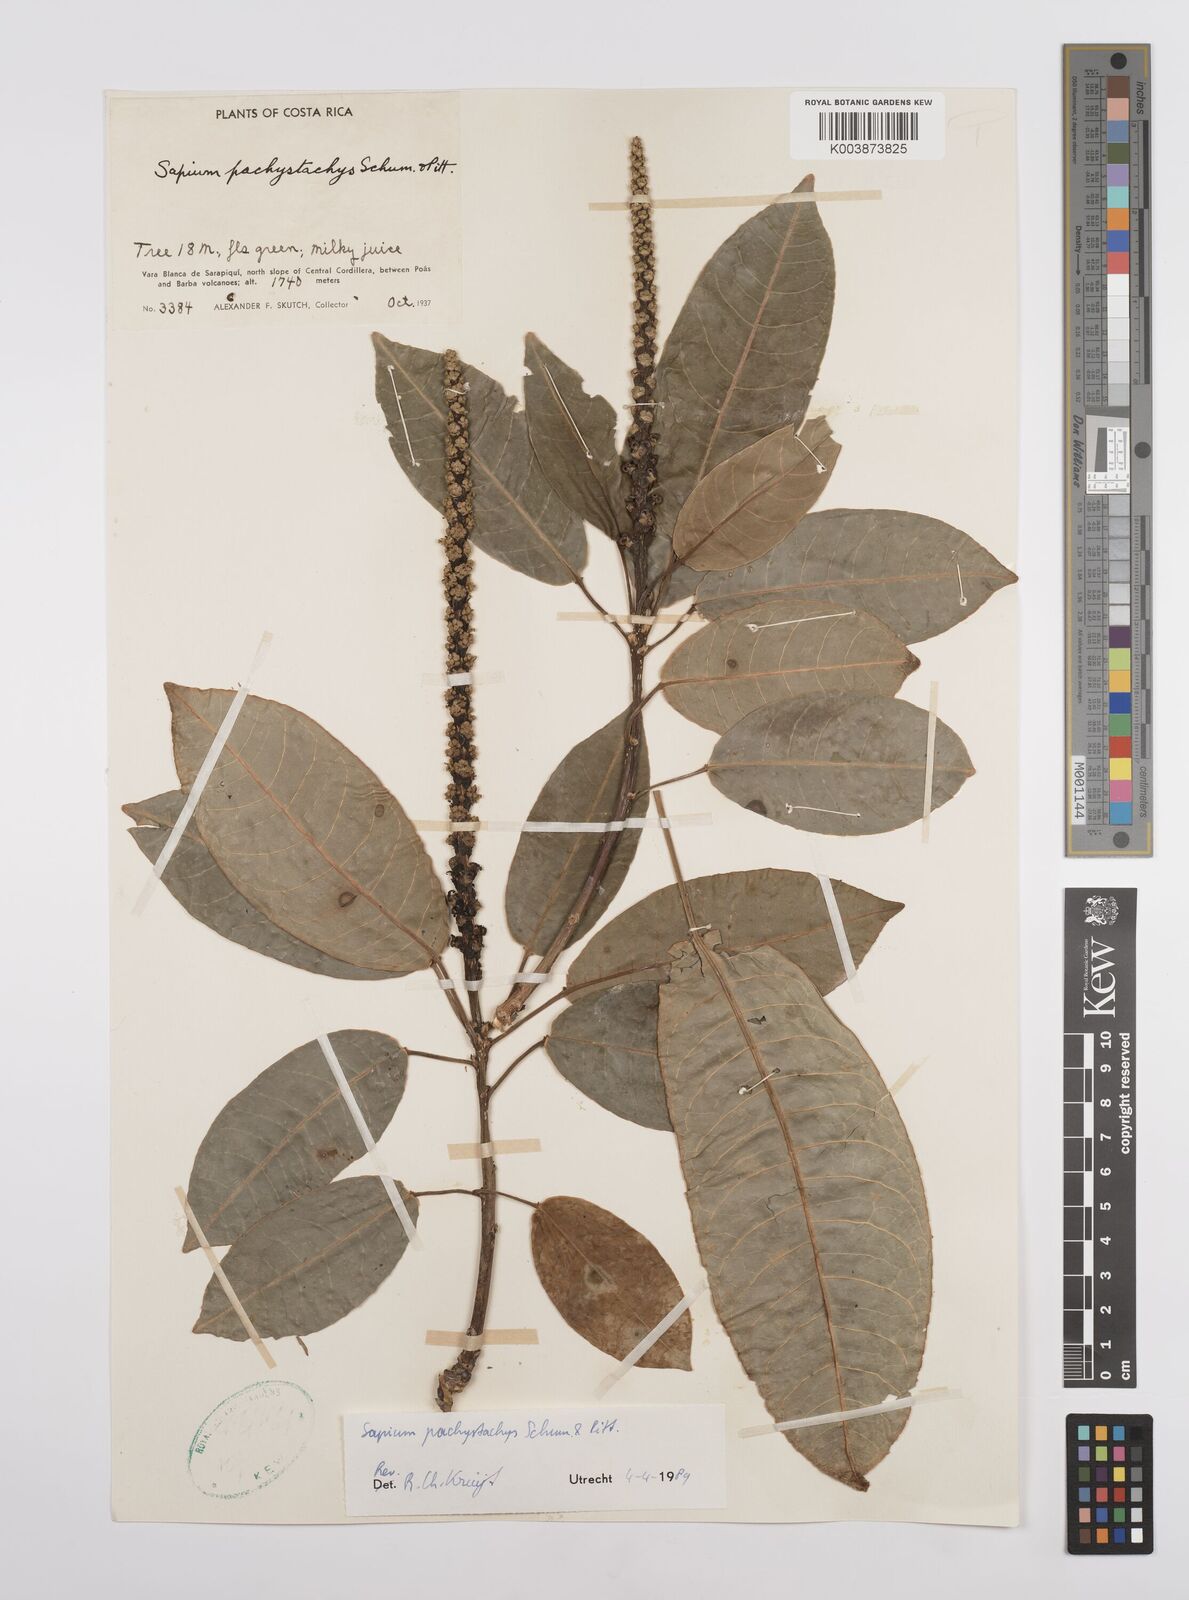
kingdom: Plantae
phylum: Tracheophyta
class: Magnoliopsida
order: Malpighiales
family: Euphorbiaceae
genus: Sapium
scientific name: Sapium pachystachys
